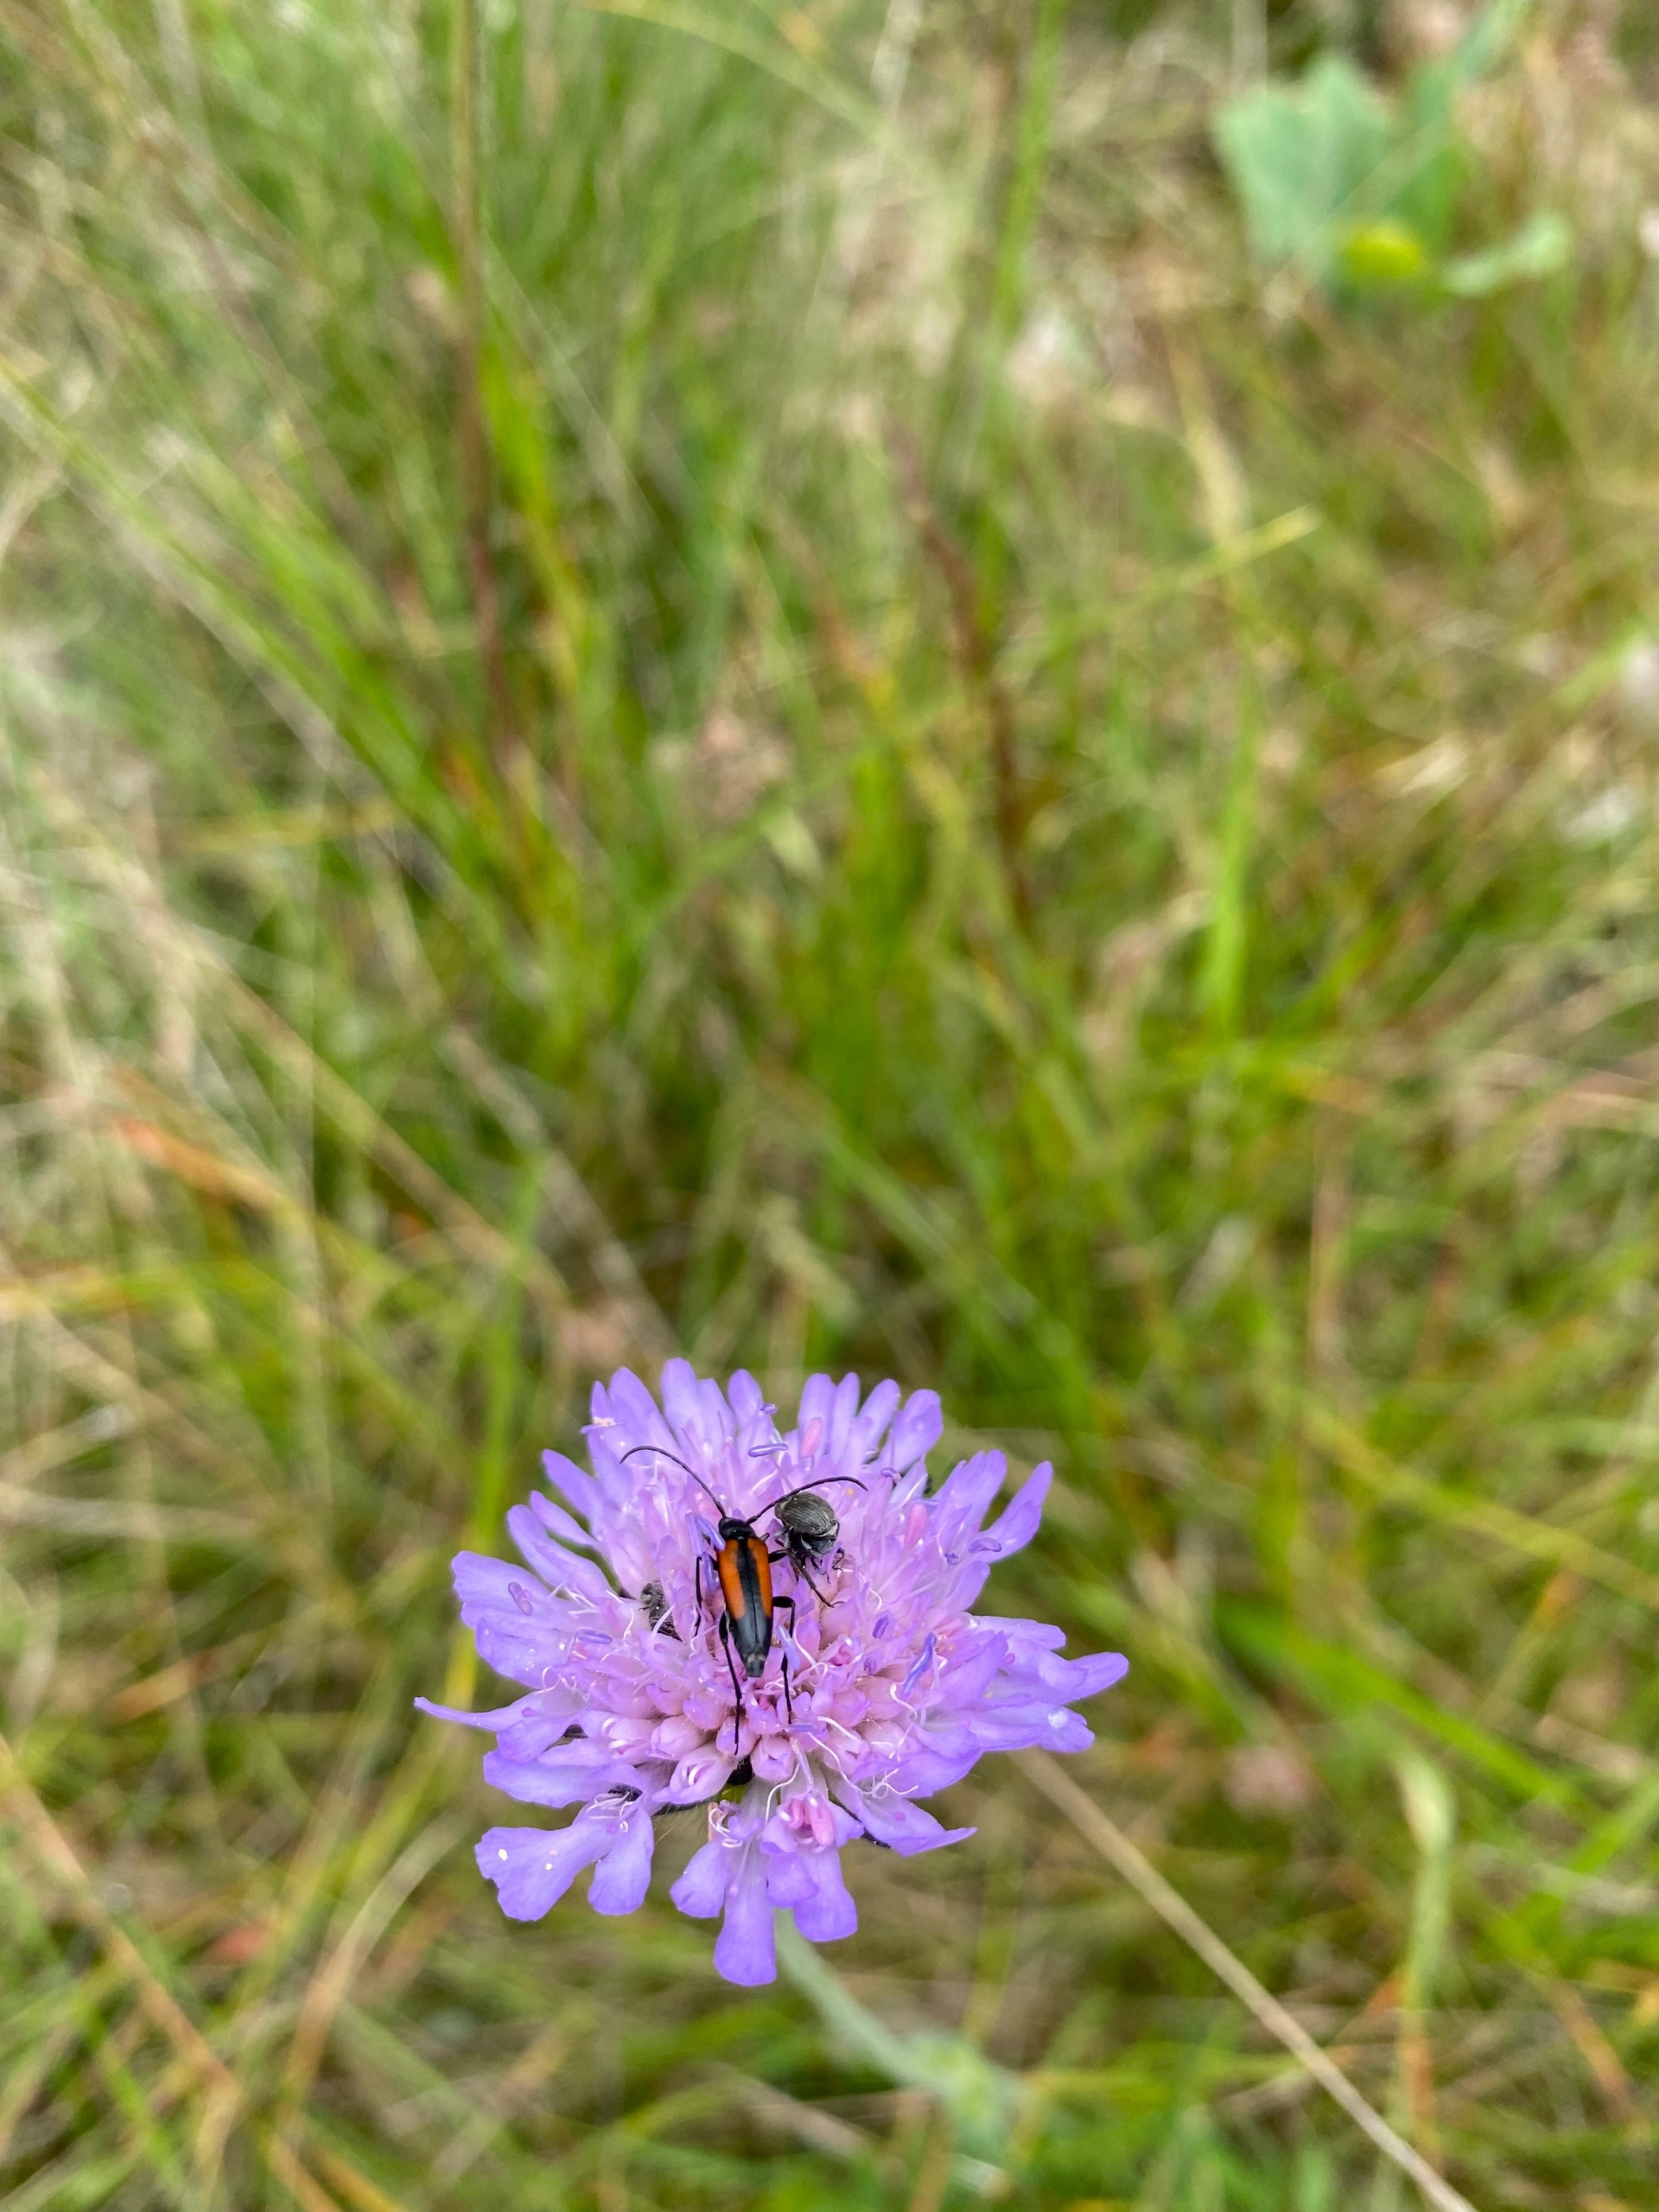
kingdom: Animalia
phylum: Arthropoda
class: Insecta
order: Coleoptera
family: Cerambycidae
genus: Stenurella
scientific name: Stenurella melanura
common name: Sortsømmet blomsterbuk
